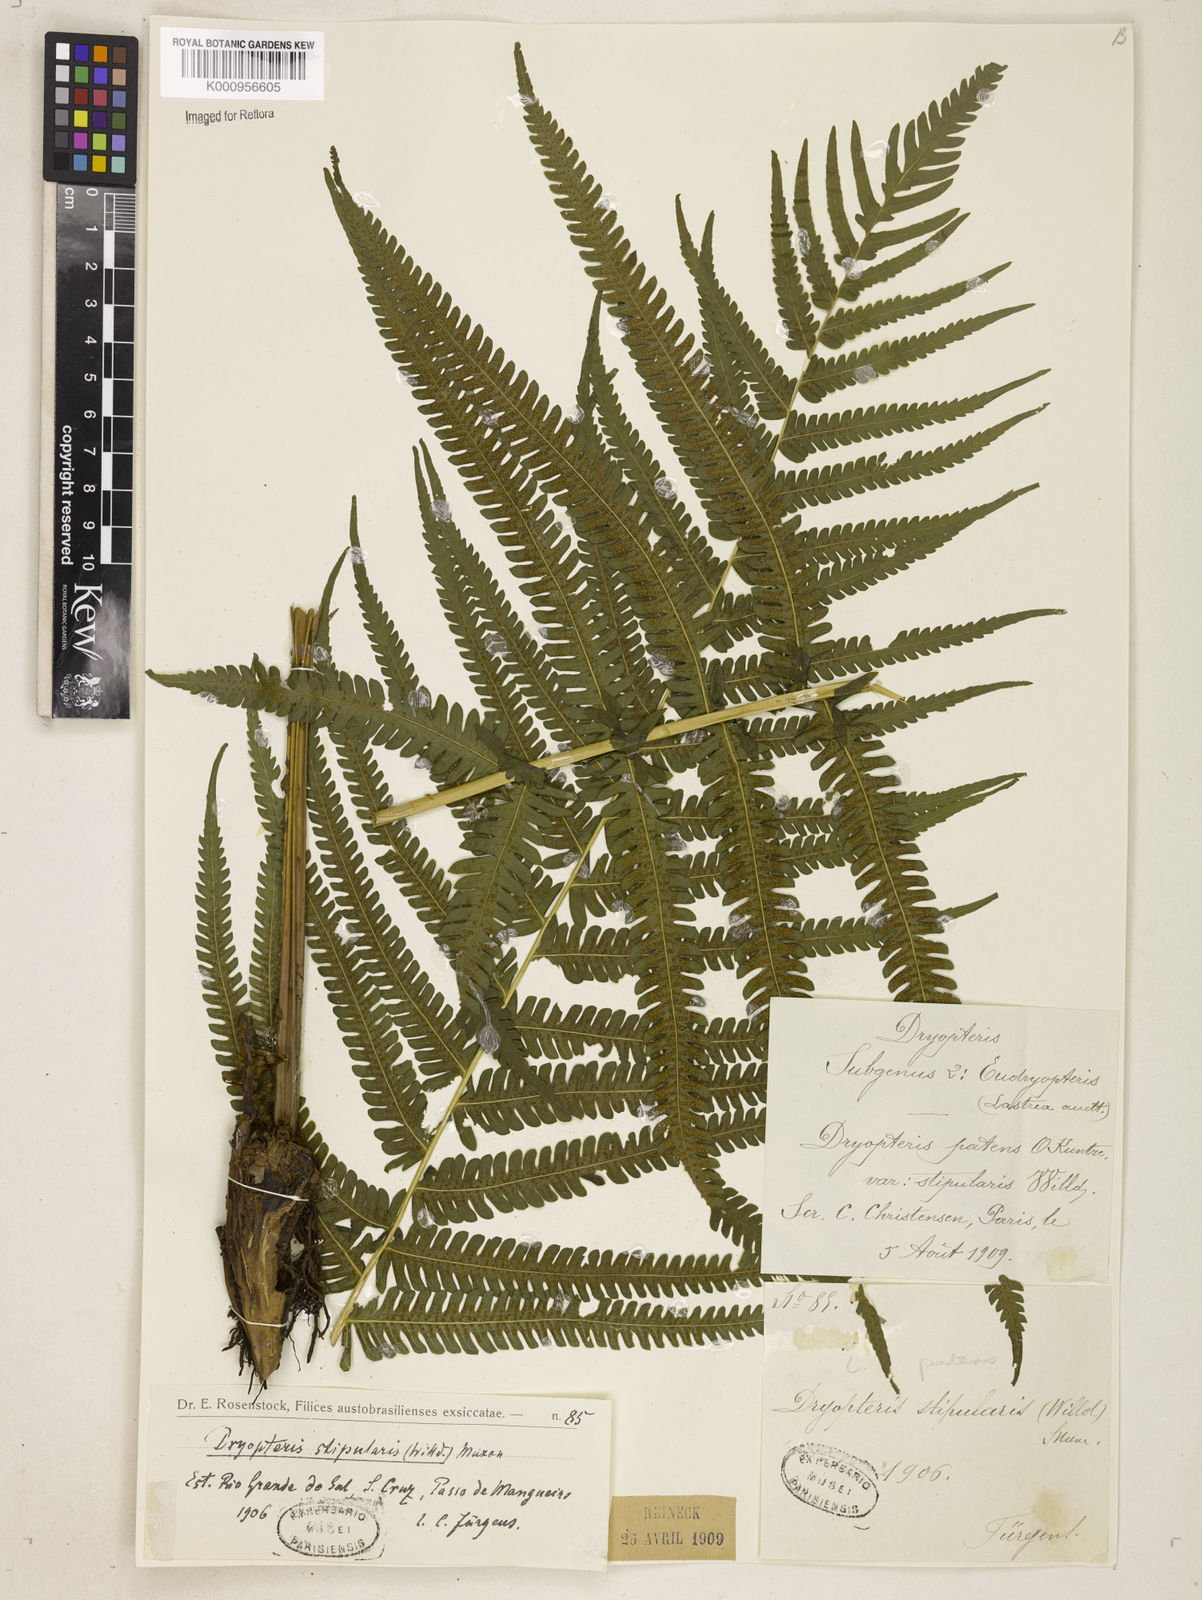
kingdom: Plantae
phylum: Tracheophyta
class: Polypodiopsida
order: Polypodiales
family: Thelypteridaceae
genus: Pelazoneuron
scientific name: Pelazoneuron patens
